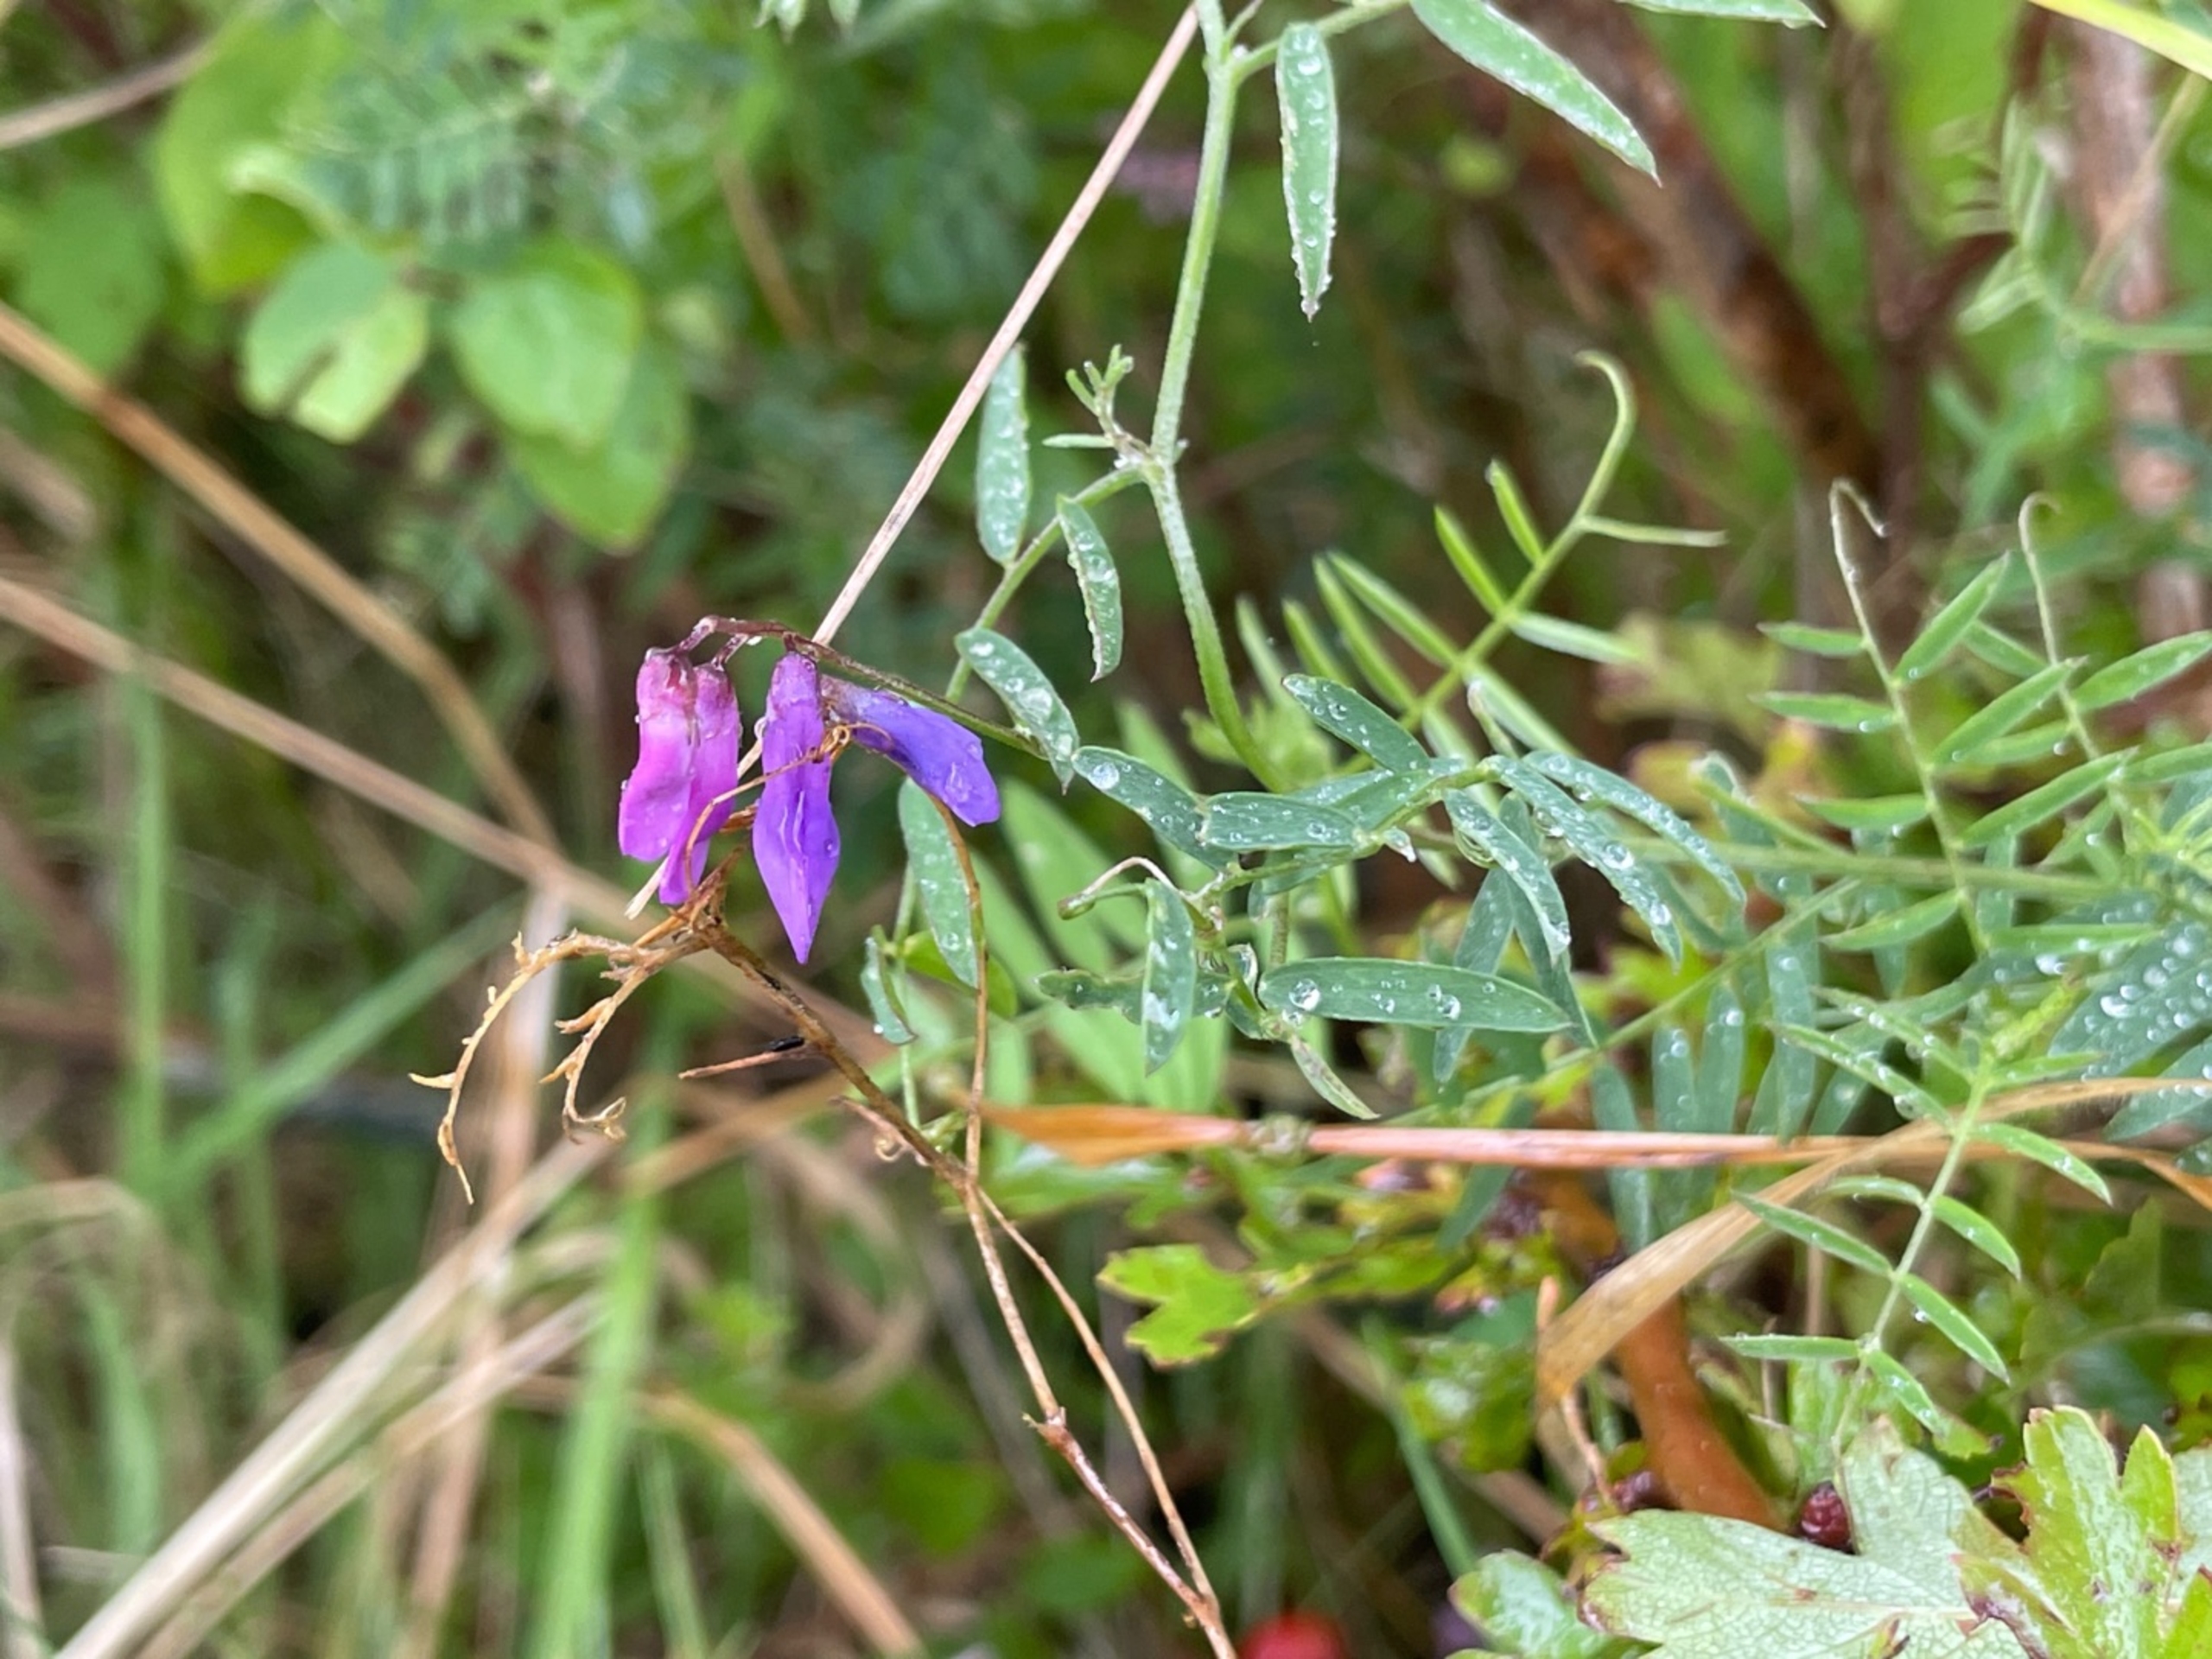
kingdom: Plantae
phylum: Tracheophyta
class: Magnoliopsida
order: Fabales
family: Fabaceae
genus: Vicia
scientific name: Vicia cracca
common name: Muse-vikke
